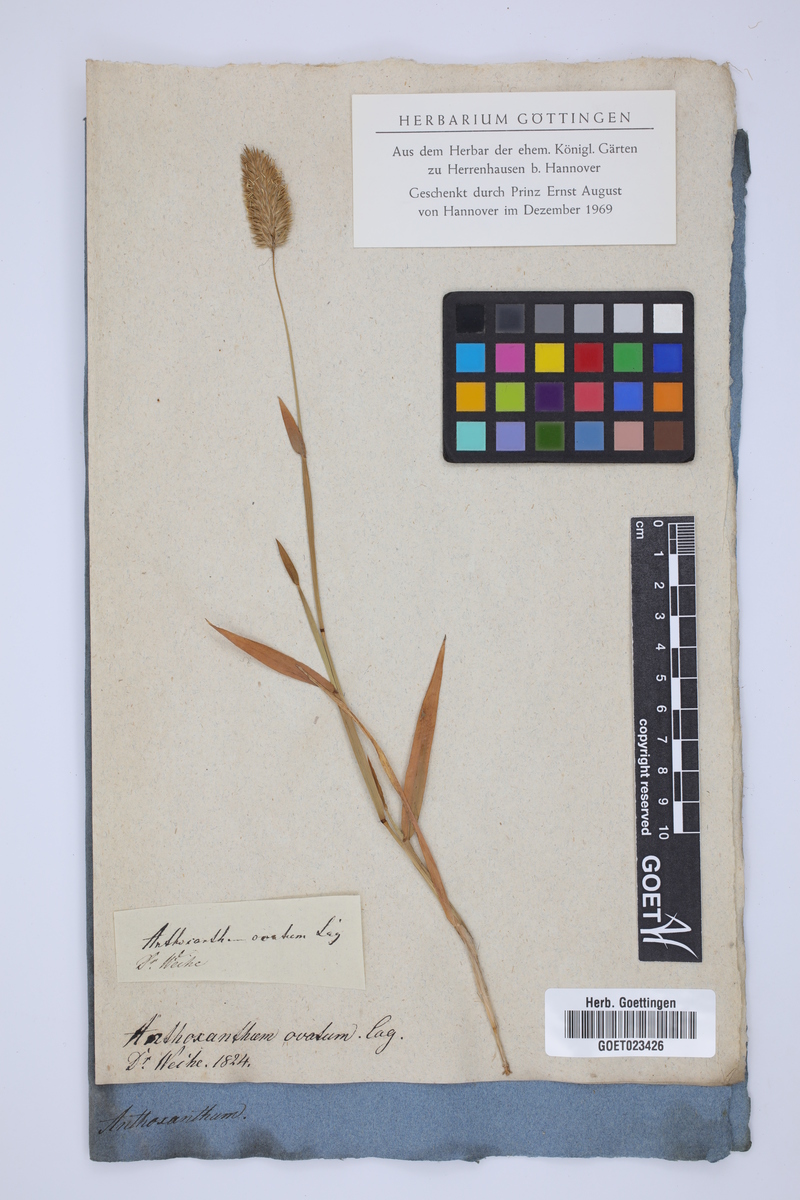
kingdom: Plantae
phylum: Tracheophyta
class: Liliopsida
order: Poales
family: Poaceae
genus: Anthoxanthum
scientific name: Anthoxanthum ovatum
